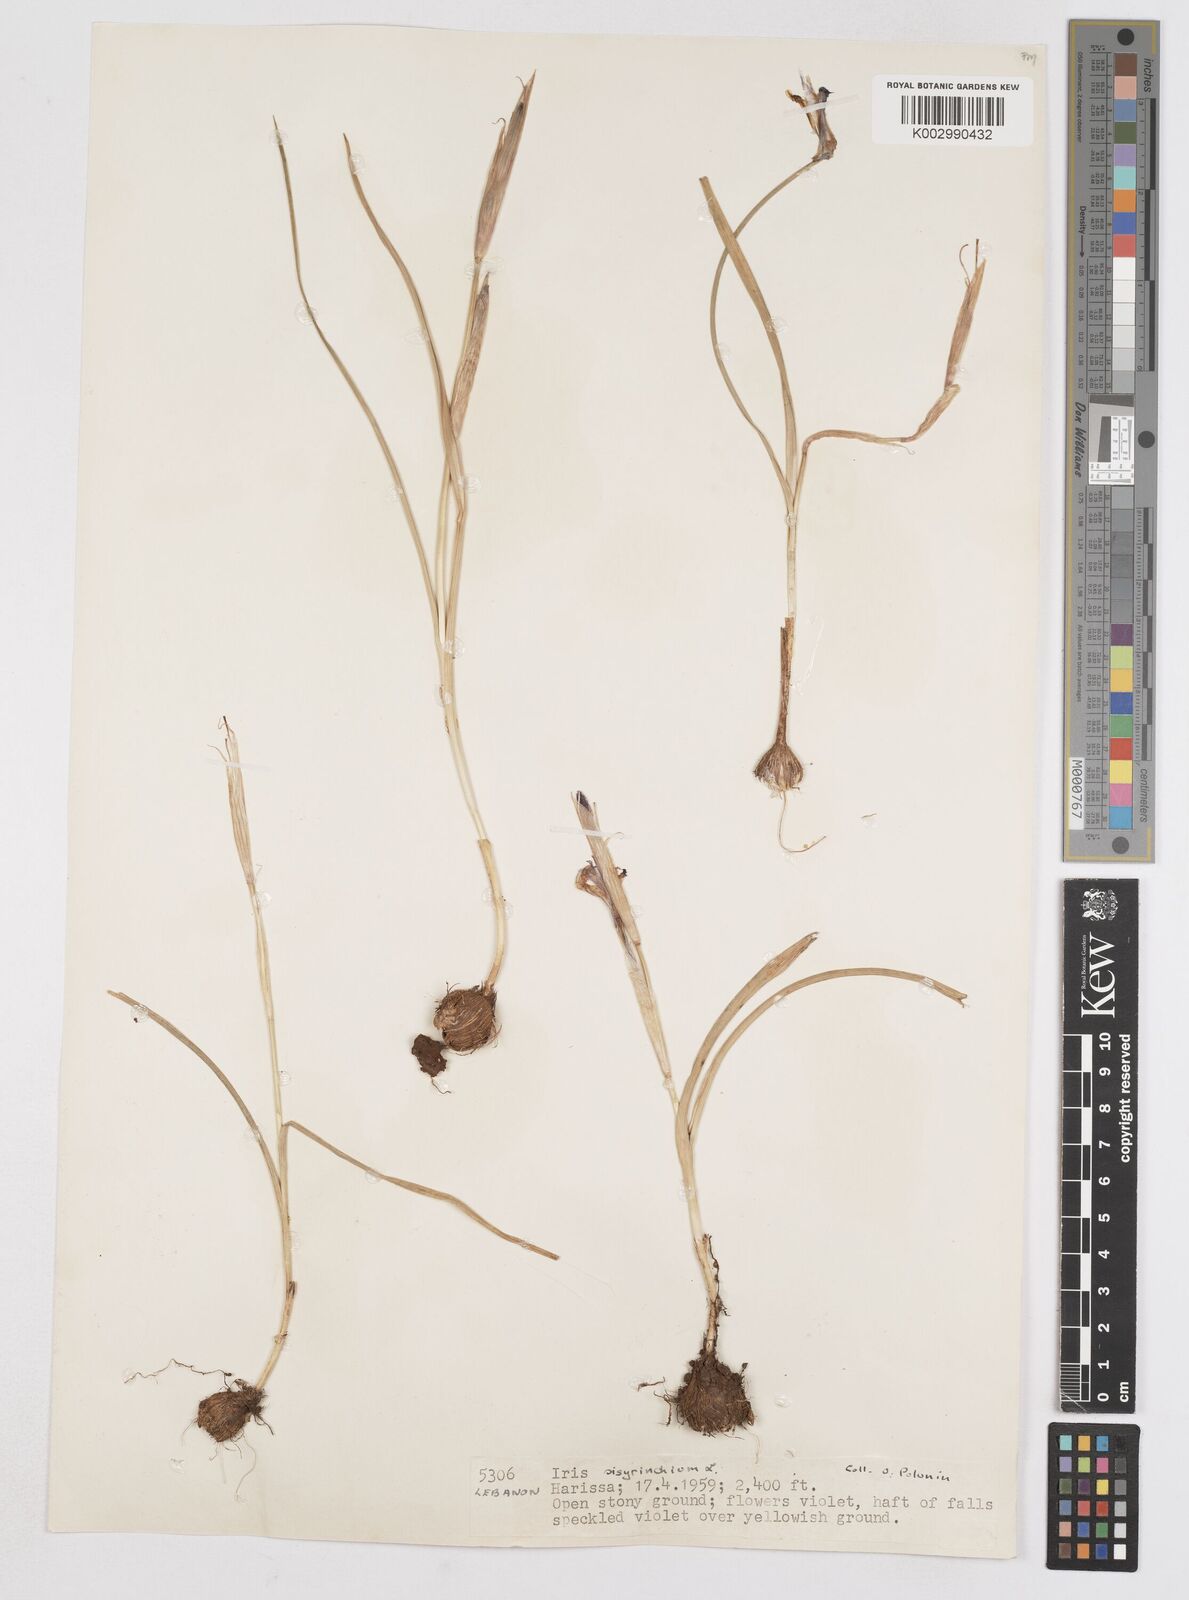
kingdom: Plantae
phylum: Tracheophyta
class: Liliopsida
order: Asparagales
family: Iridaceae
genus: Moraea
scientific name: Moraea sisyrinchium
